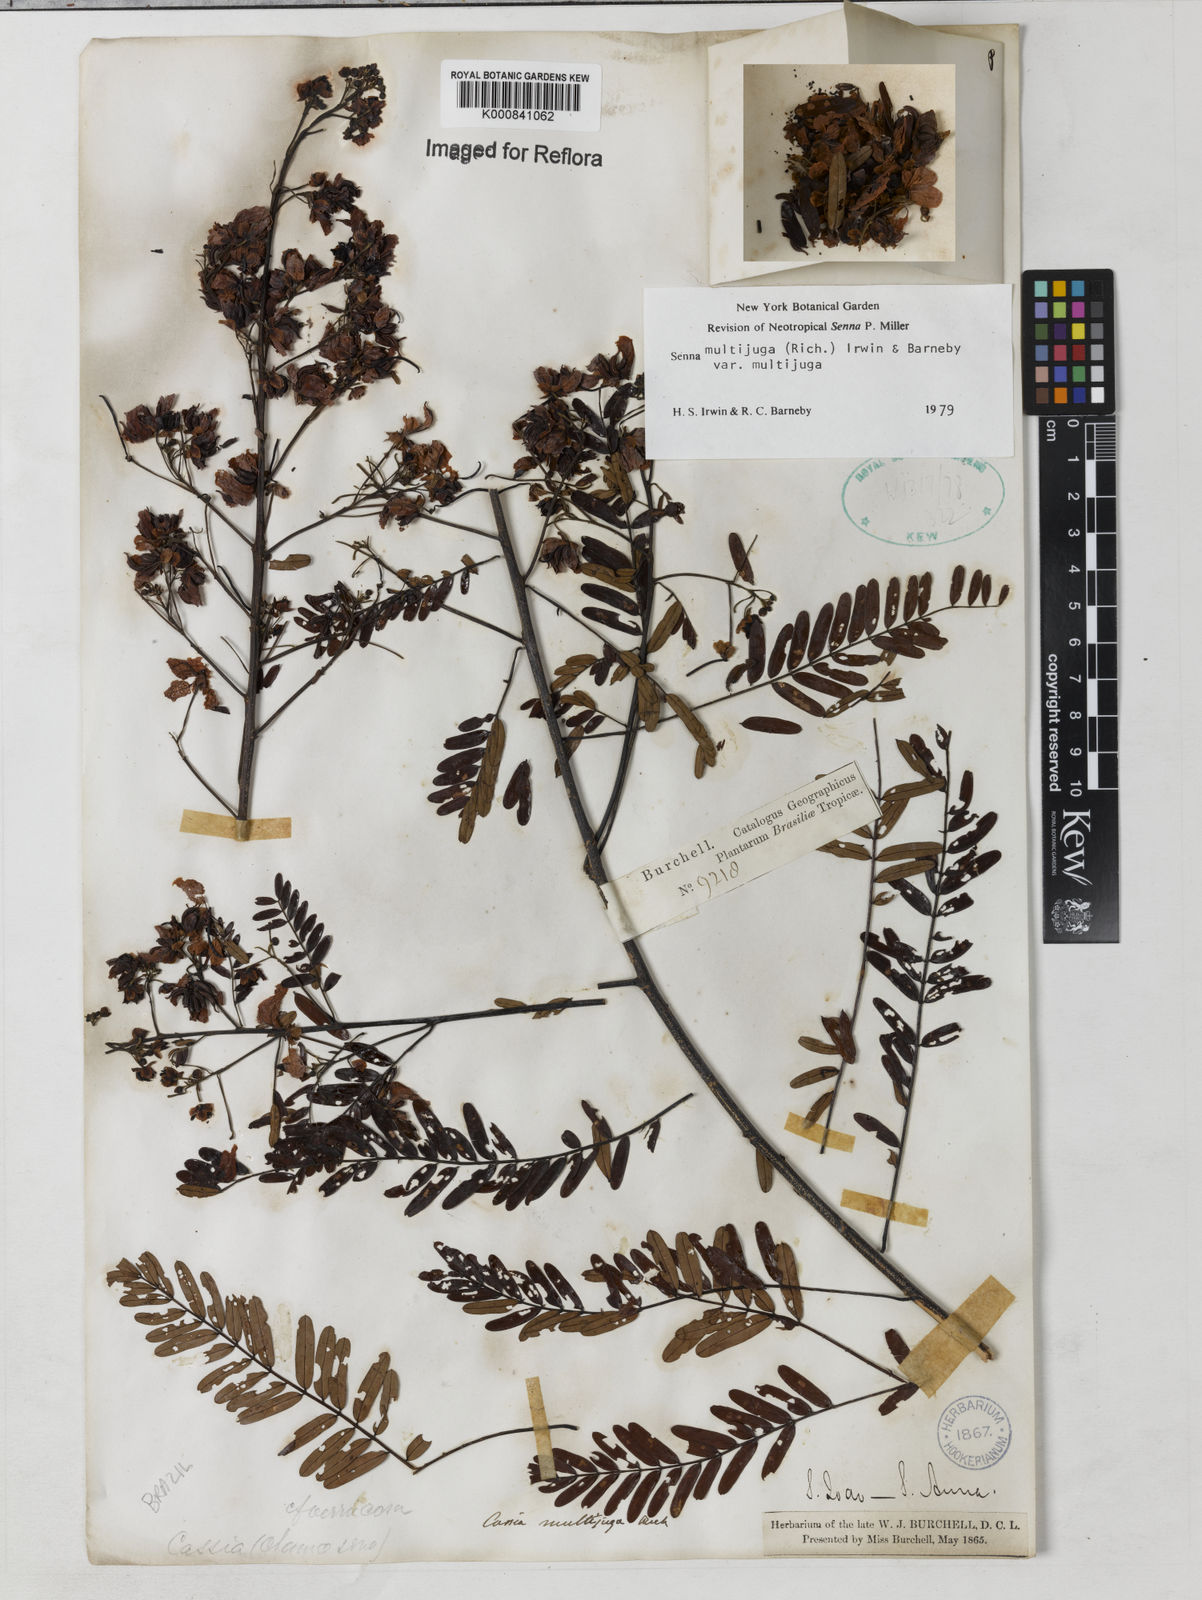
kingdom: Plantae
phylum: Tracheophyta
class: Magnoliopsida
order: Fabales
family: Fabaceae
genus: Senna
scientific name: Senna multijuga
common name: False sicklepod
